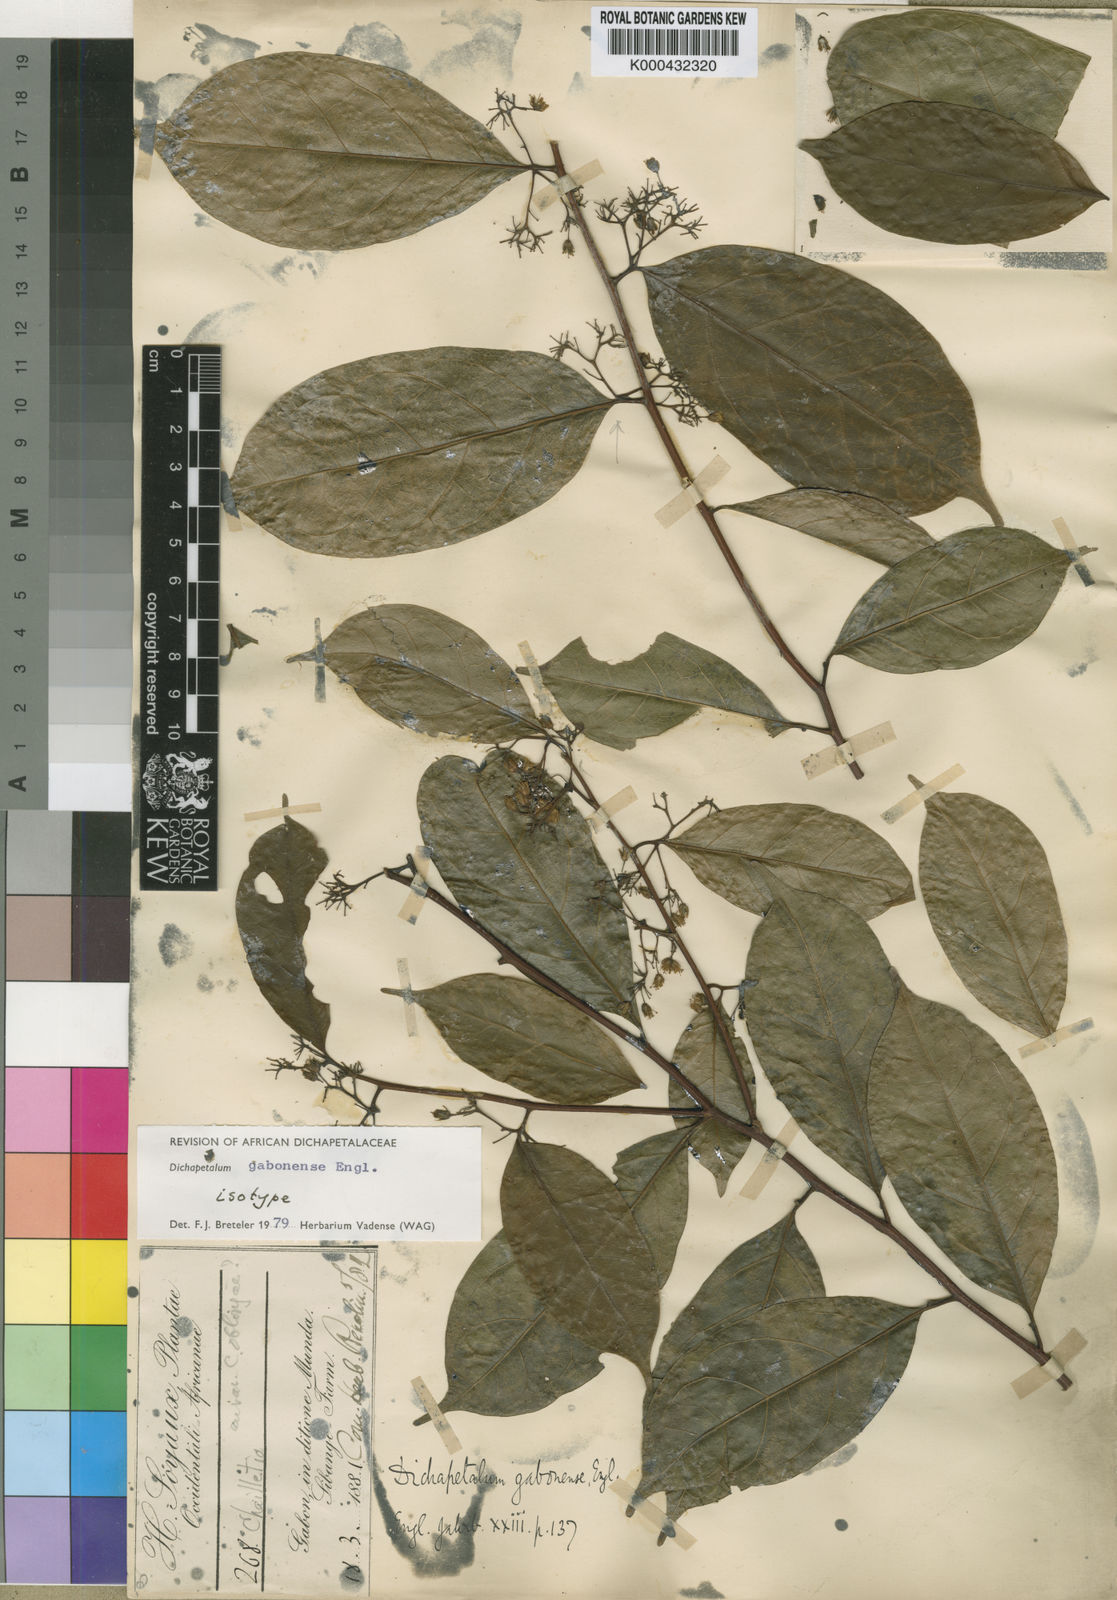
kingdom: Plantae
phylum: Tracheophyta
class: Magnoliopsida
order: Malpighiales
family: Dichapetalaceae
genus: Dichapetalum
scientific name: Dichapetalum gabonense
